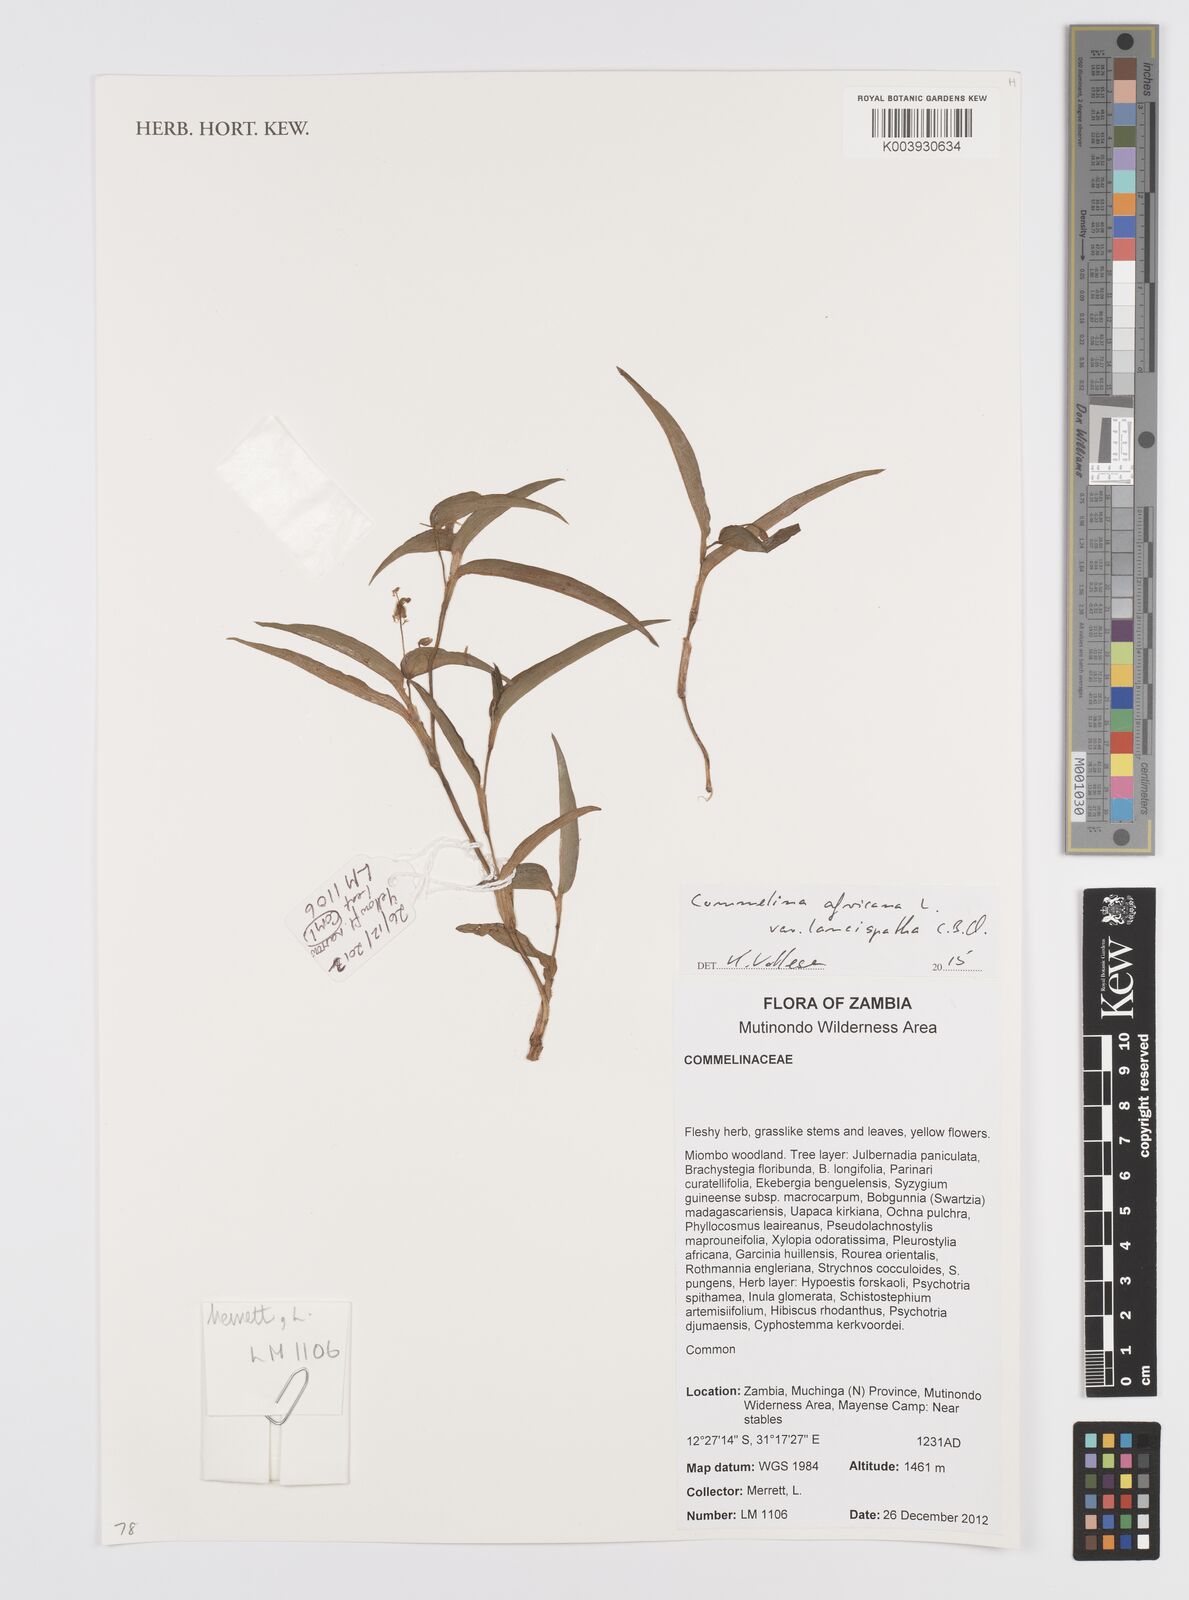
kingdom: Plantae
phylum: Tracheophyta
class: Liliopsida
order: Commelinales
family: Commelinaceae
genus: Commelina
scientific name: Commelina africana
